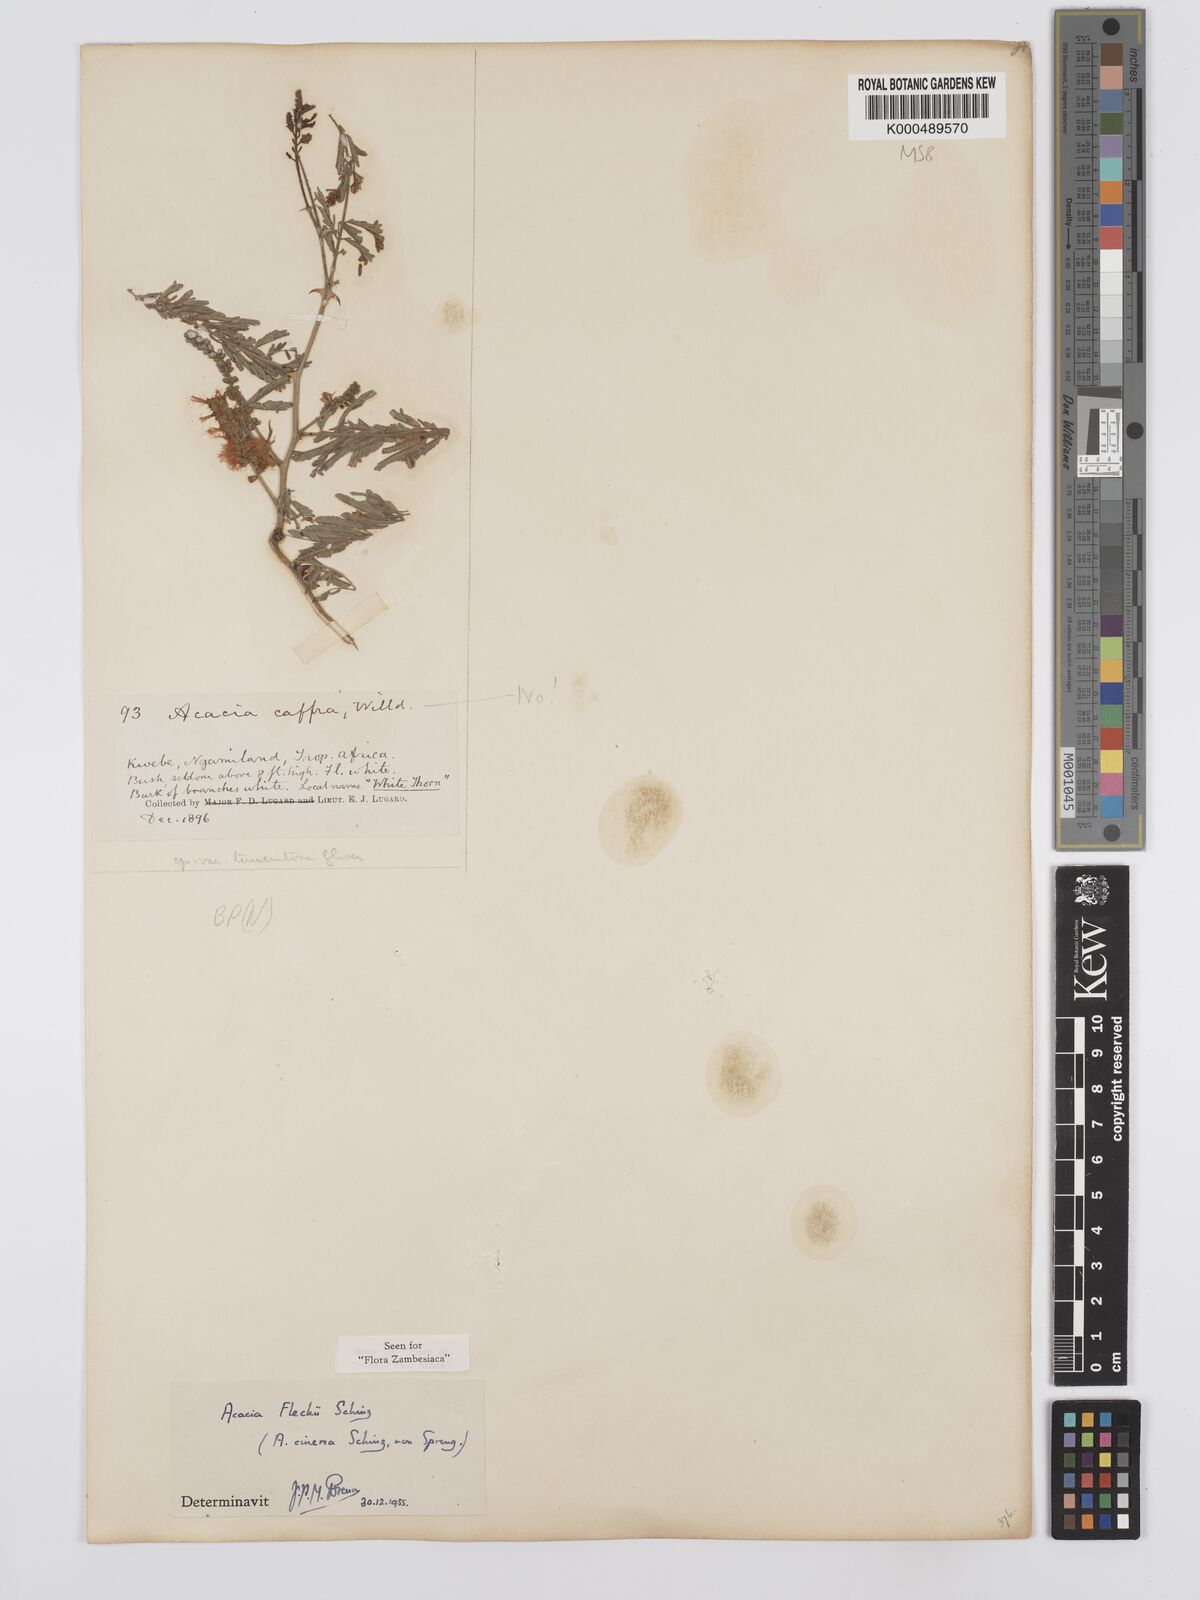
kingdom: Plantae
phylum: Tracheophyta
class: Magnoliopsida
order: Fabales
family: Fabaceae
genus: Senegalia
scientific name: Senegalia fleckii
